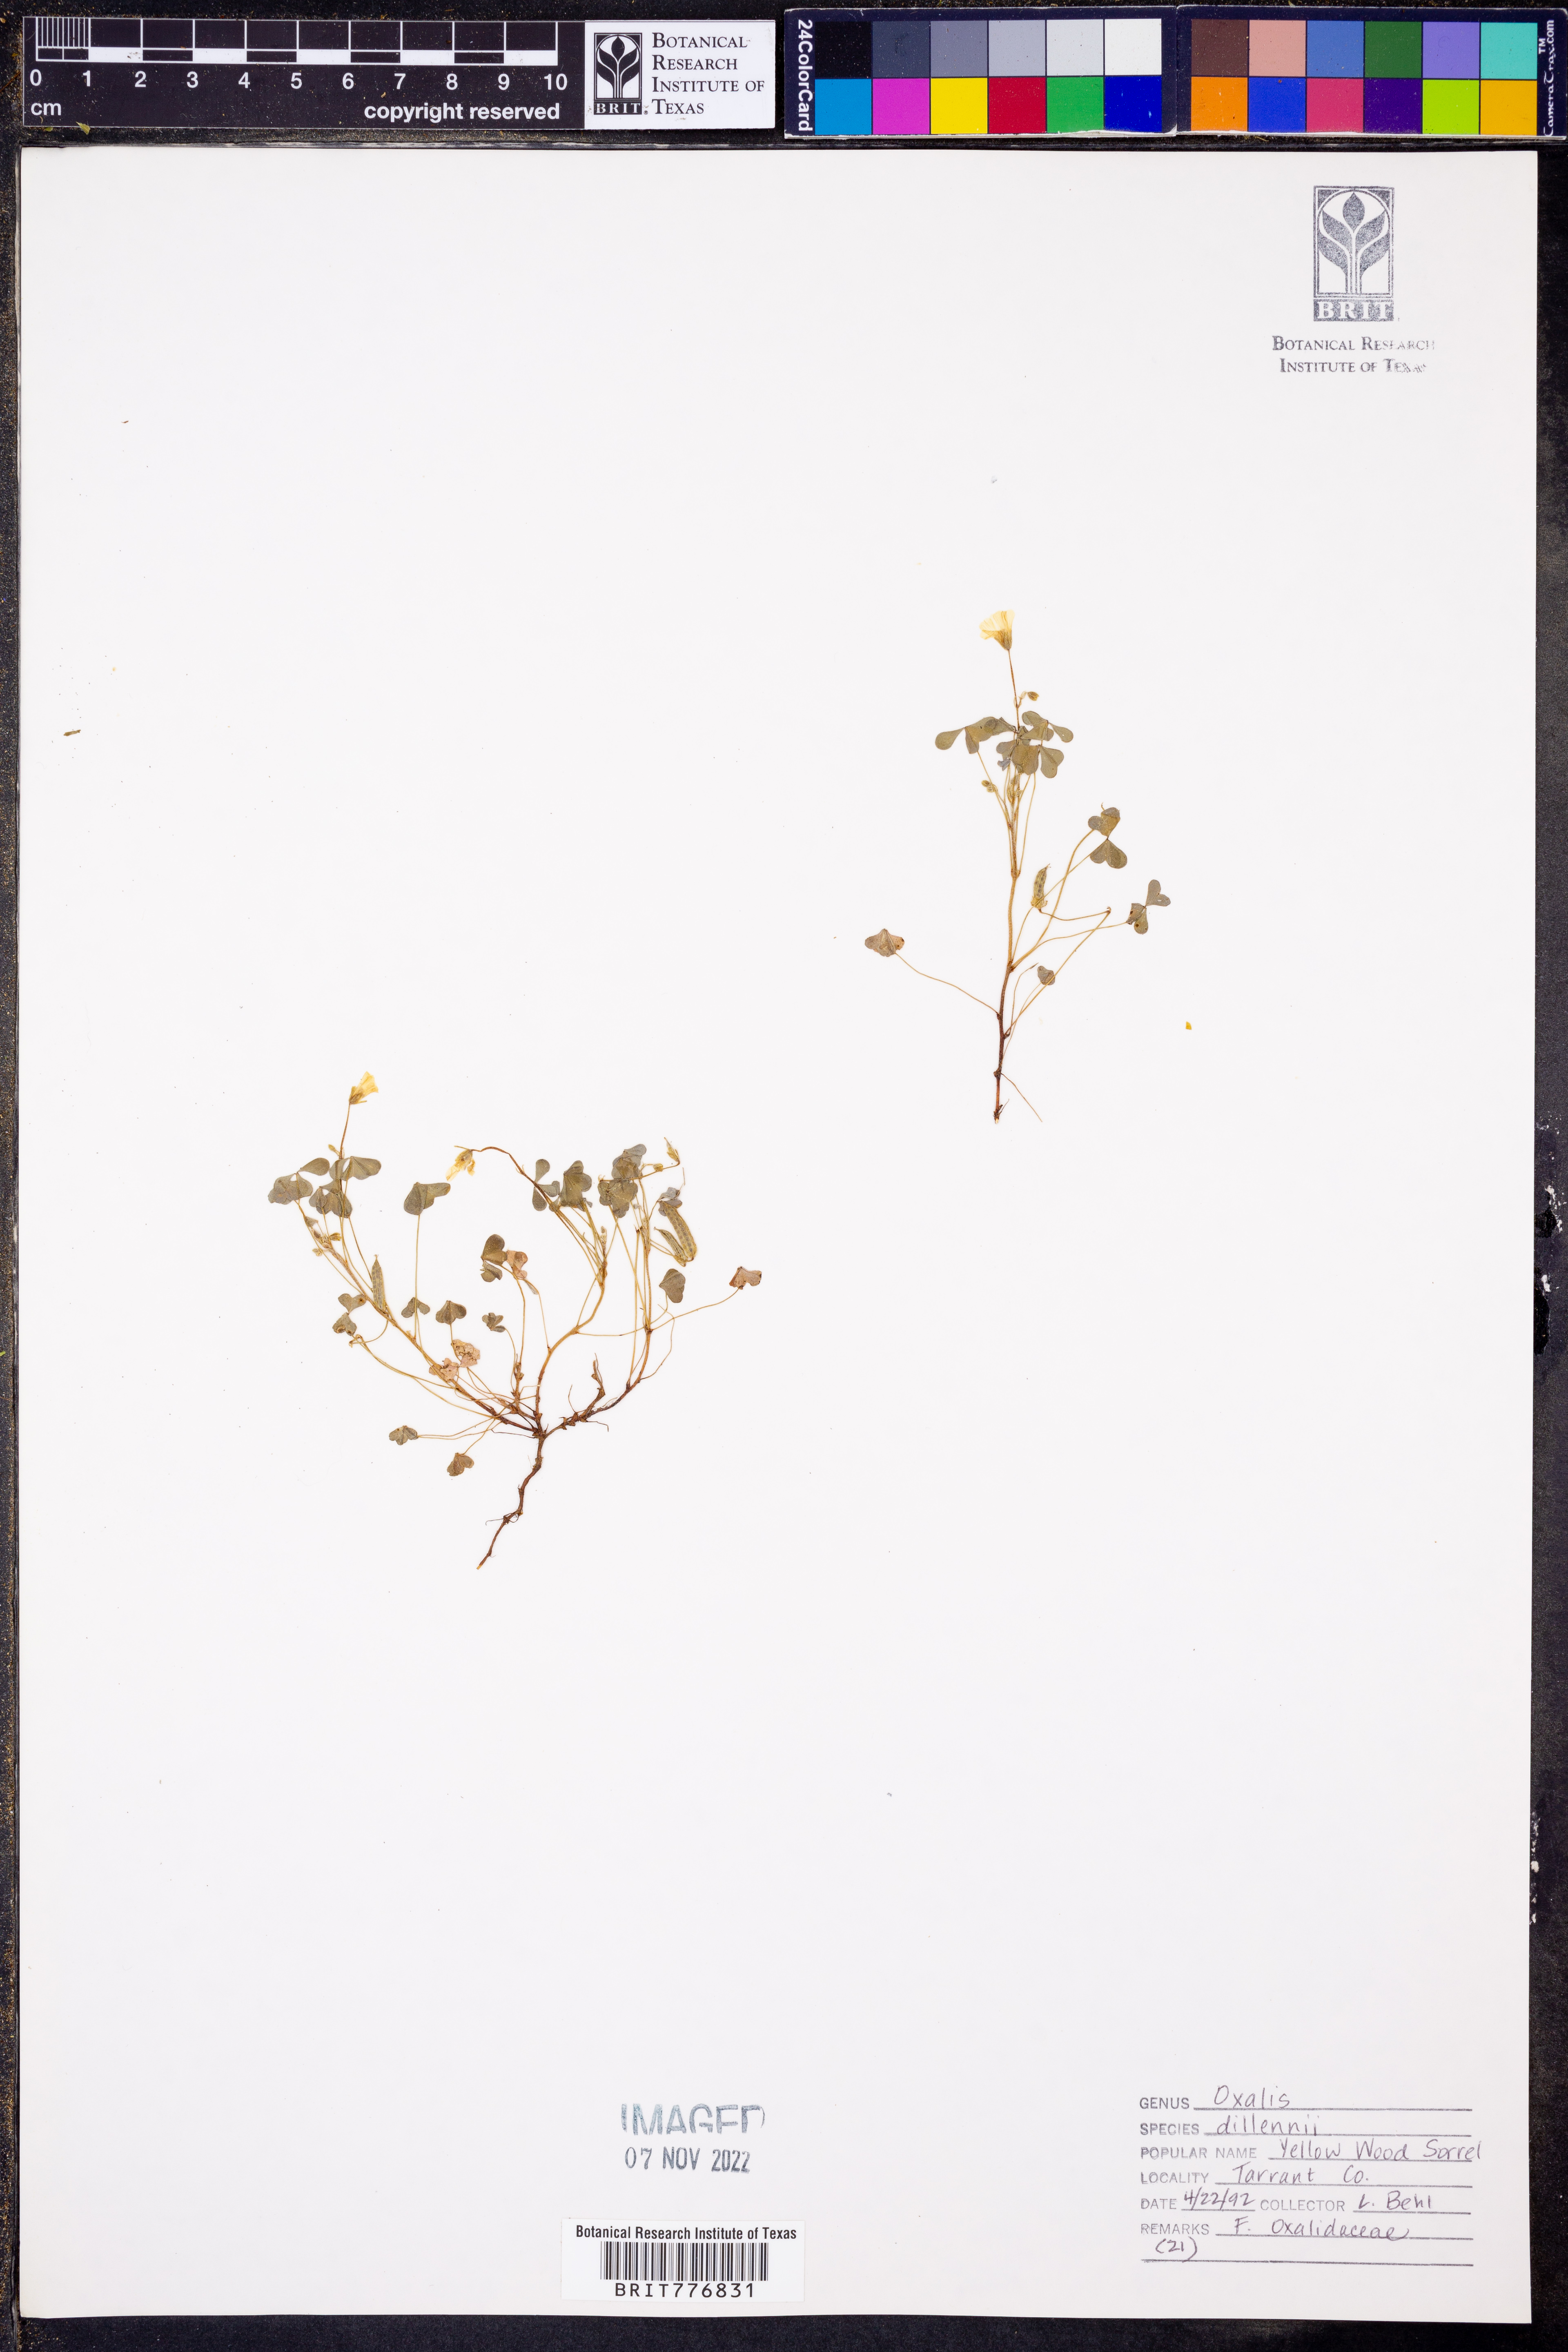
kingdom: Plantae
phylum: Tracheophyta
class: Magnoliopsida
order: Oxalidales
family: Oxalidaceae
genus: Oxalis
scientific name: Oxalis dillenii
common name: Sussex yellow-sorrel
